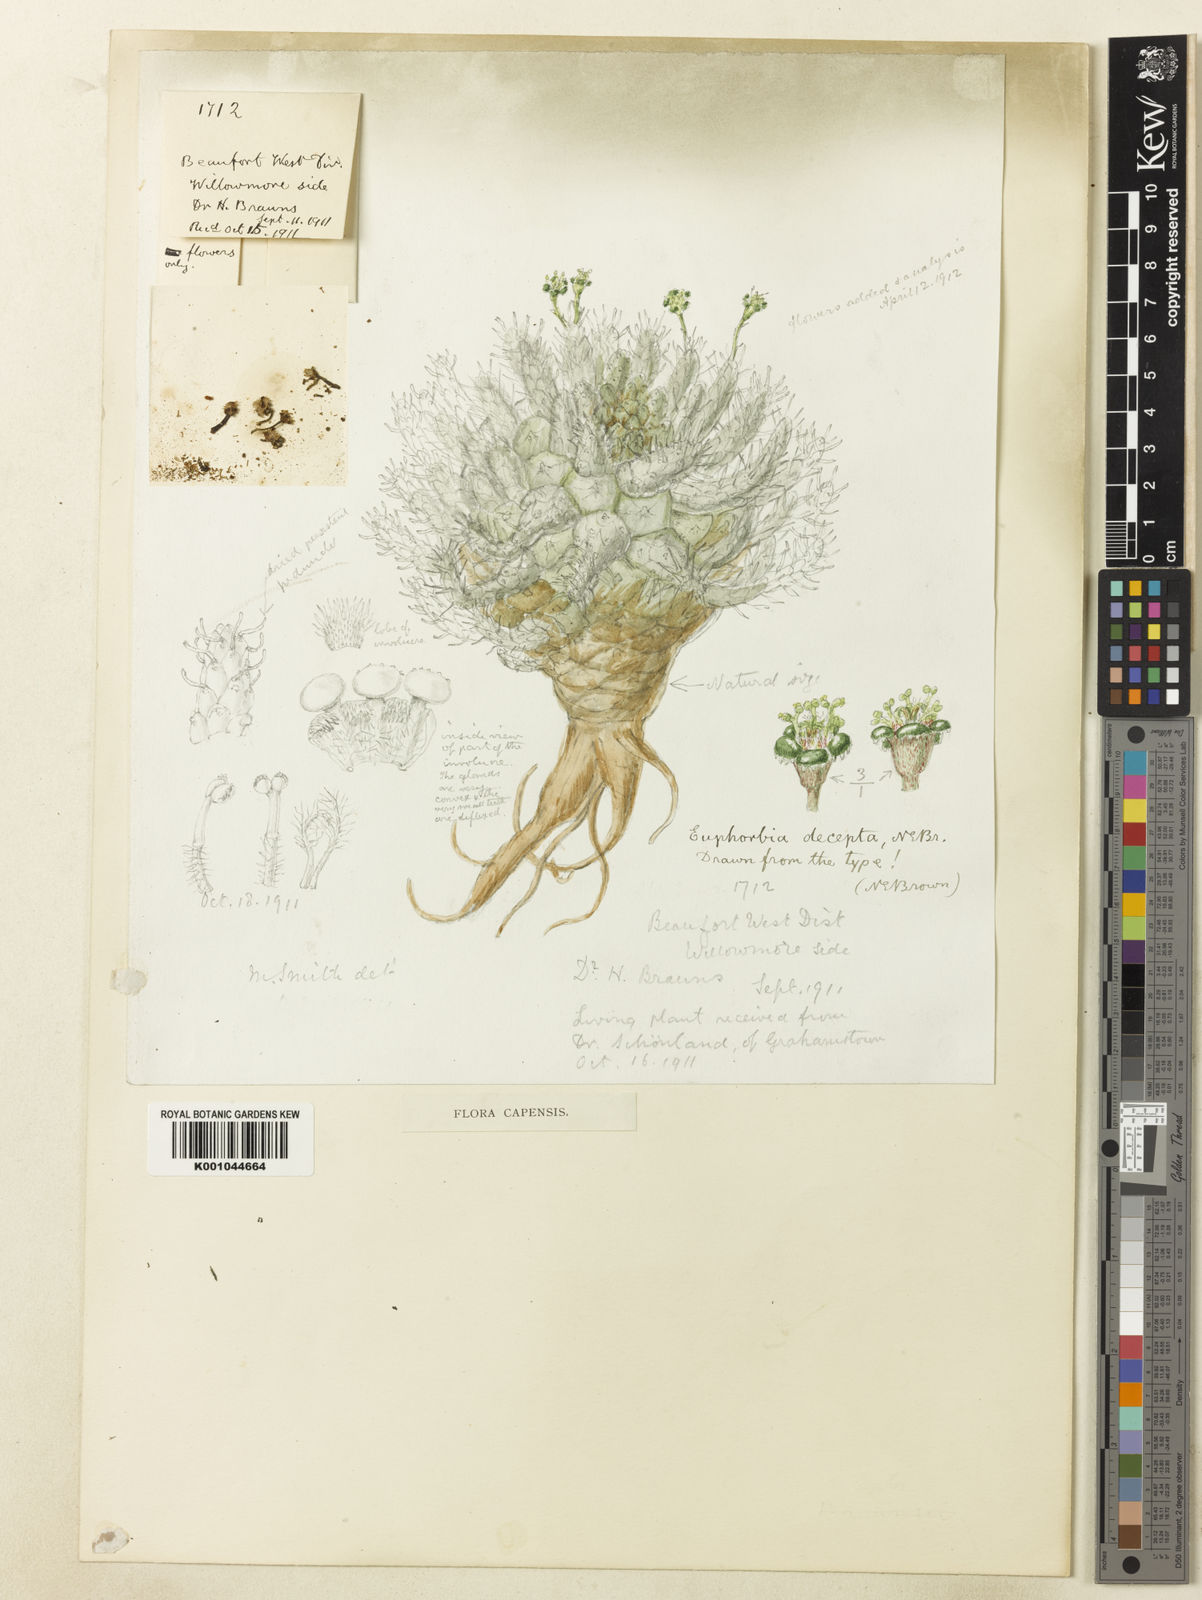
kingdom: Plantae
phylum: Tracheophyta
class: Magnoliopsida
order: Malpighiales
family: Euphorbiaceae
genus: Euphorbia
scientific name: Euphorbia decepta
